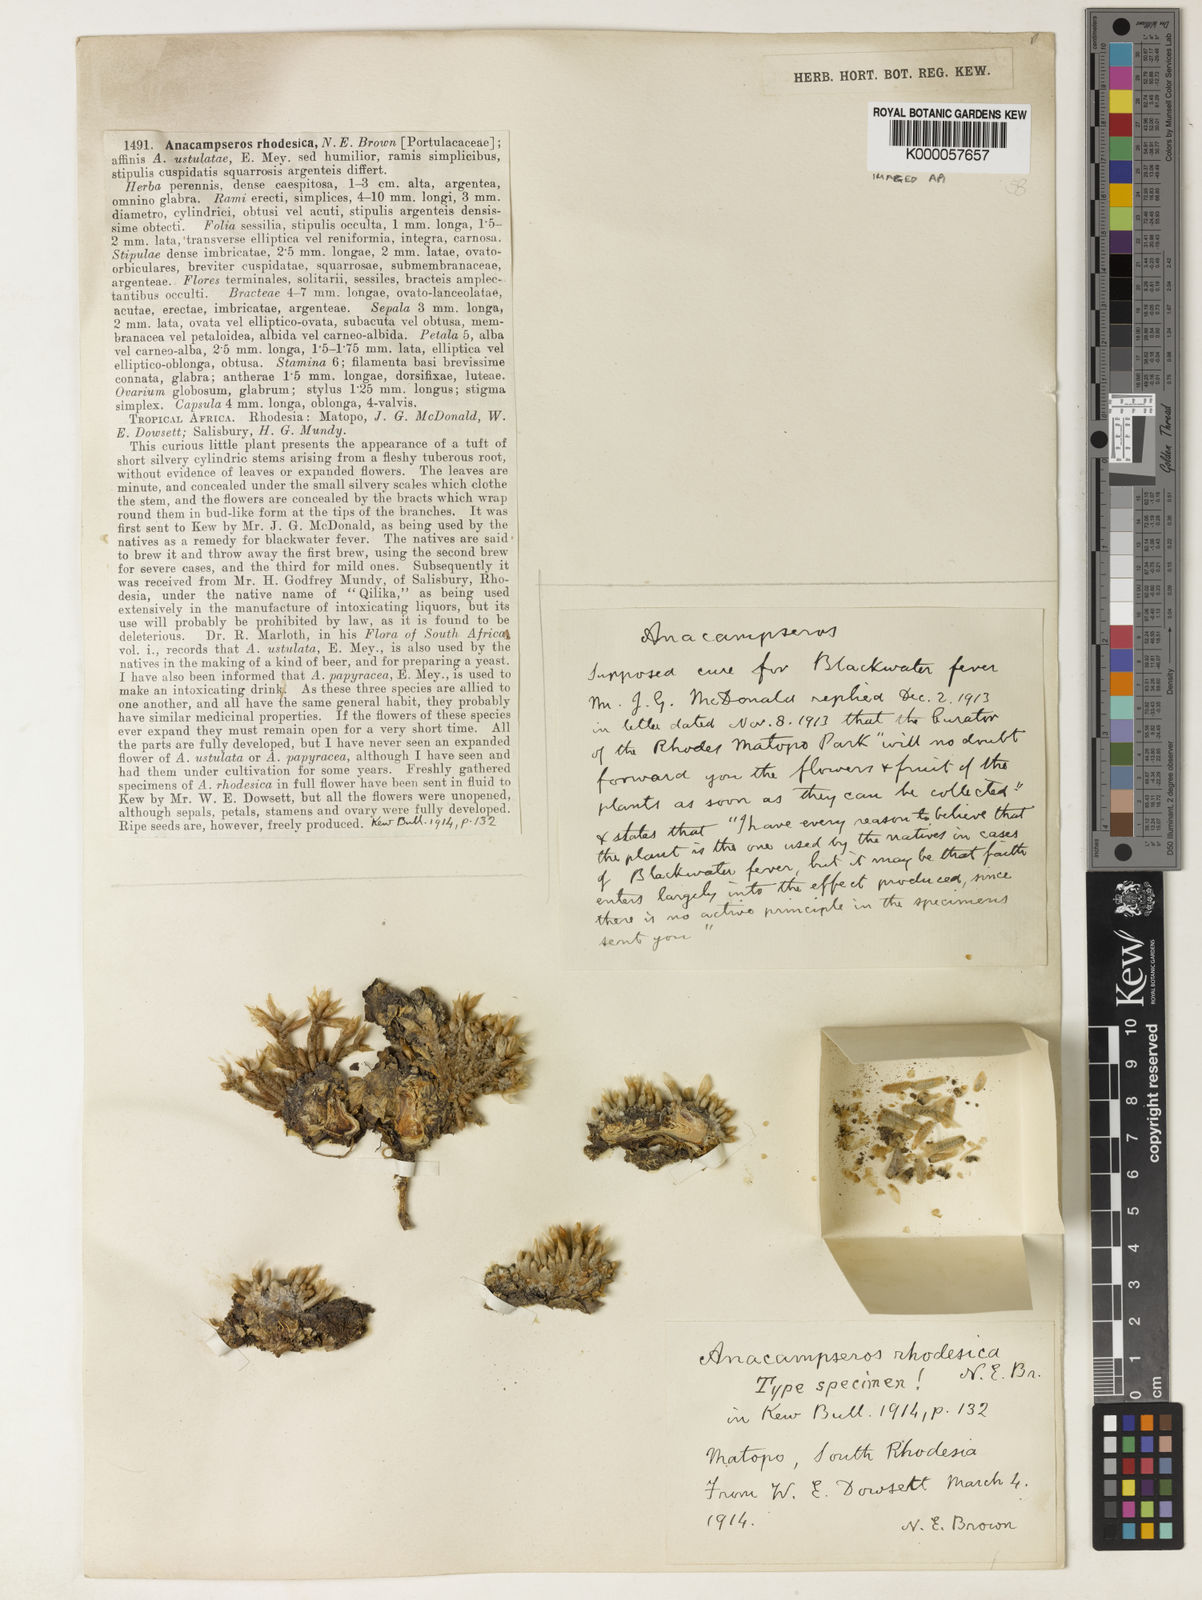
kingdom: Plantae
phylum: Tracheophyta
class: Magnoliopsida
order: Caryophyllales
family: Anacampserotaceae
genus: Avonia
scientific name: Avonia rhodesica
